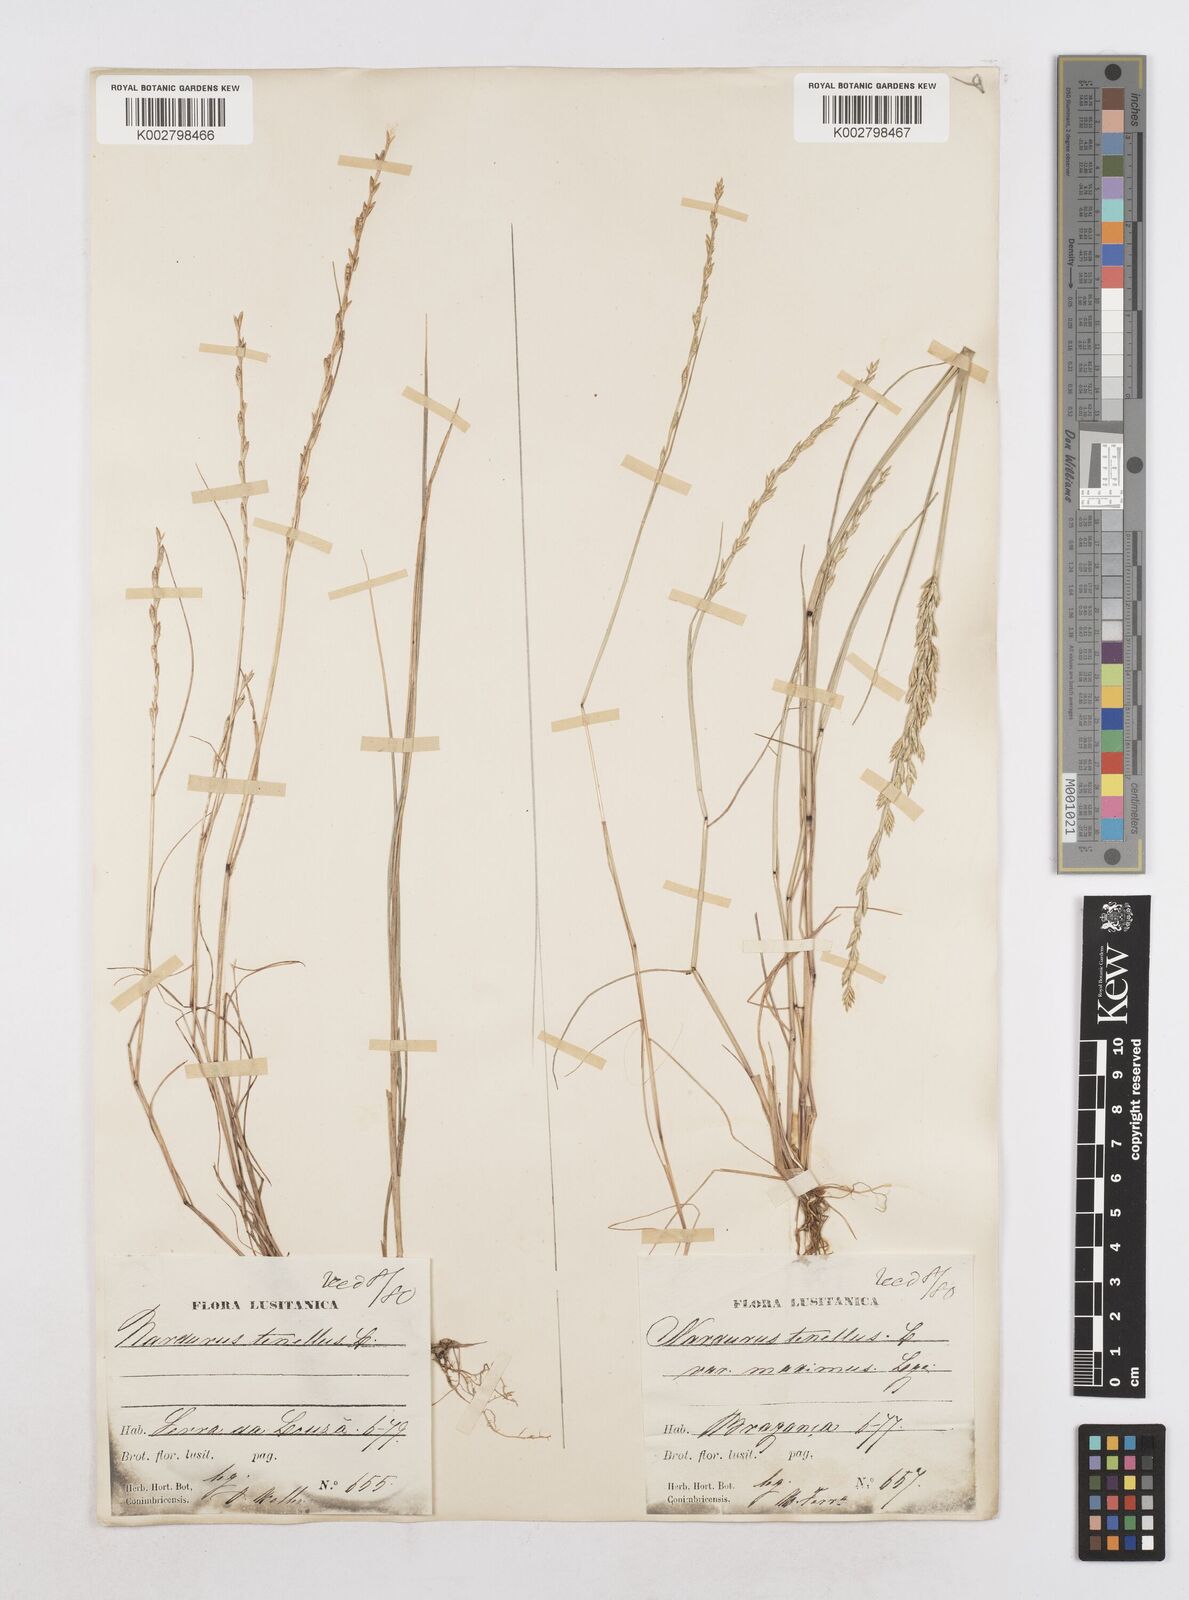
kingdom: Plantae
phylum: Tracheophyta
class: Liliopsida
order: Poales
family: Poaceae
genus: Festuca
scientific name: Festuca lachenalii
